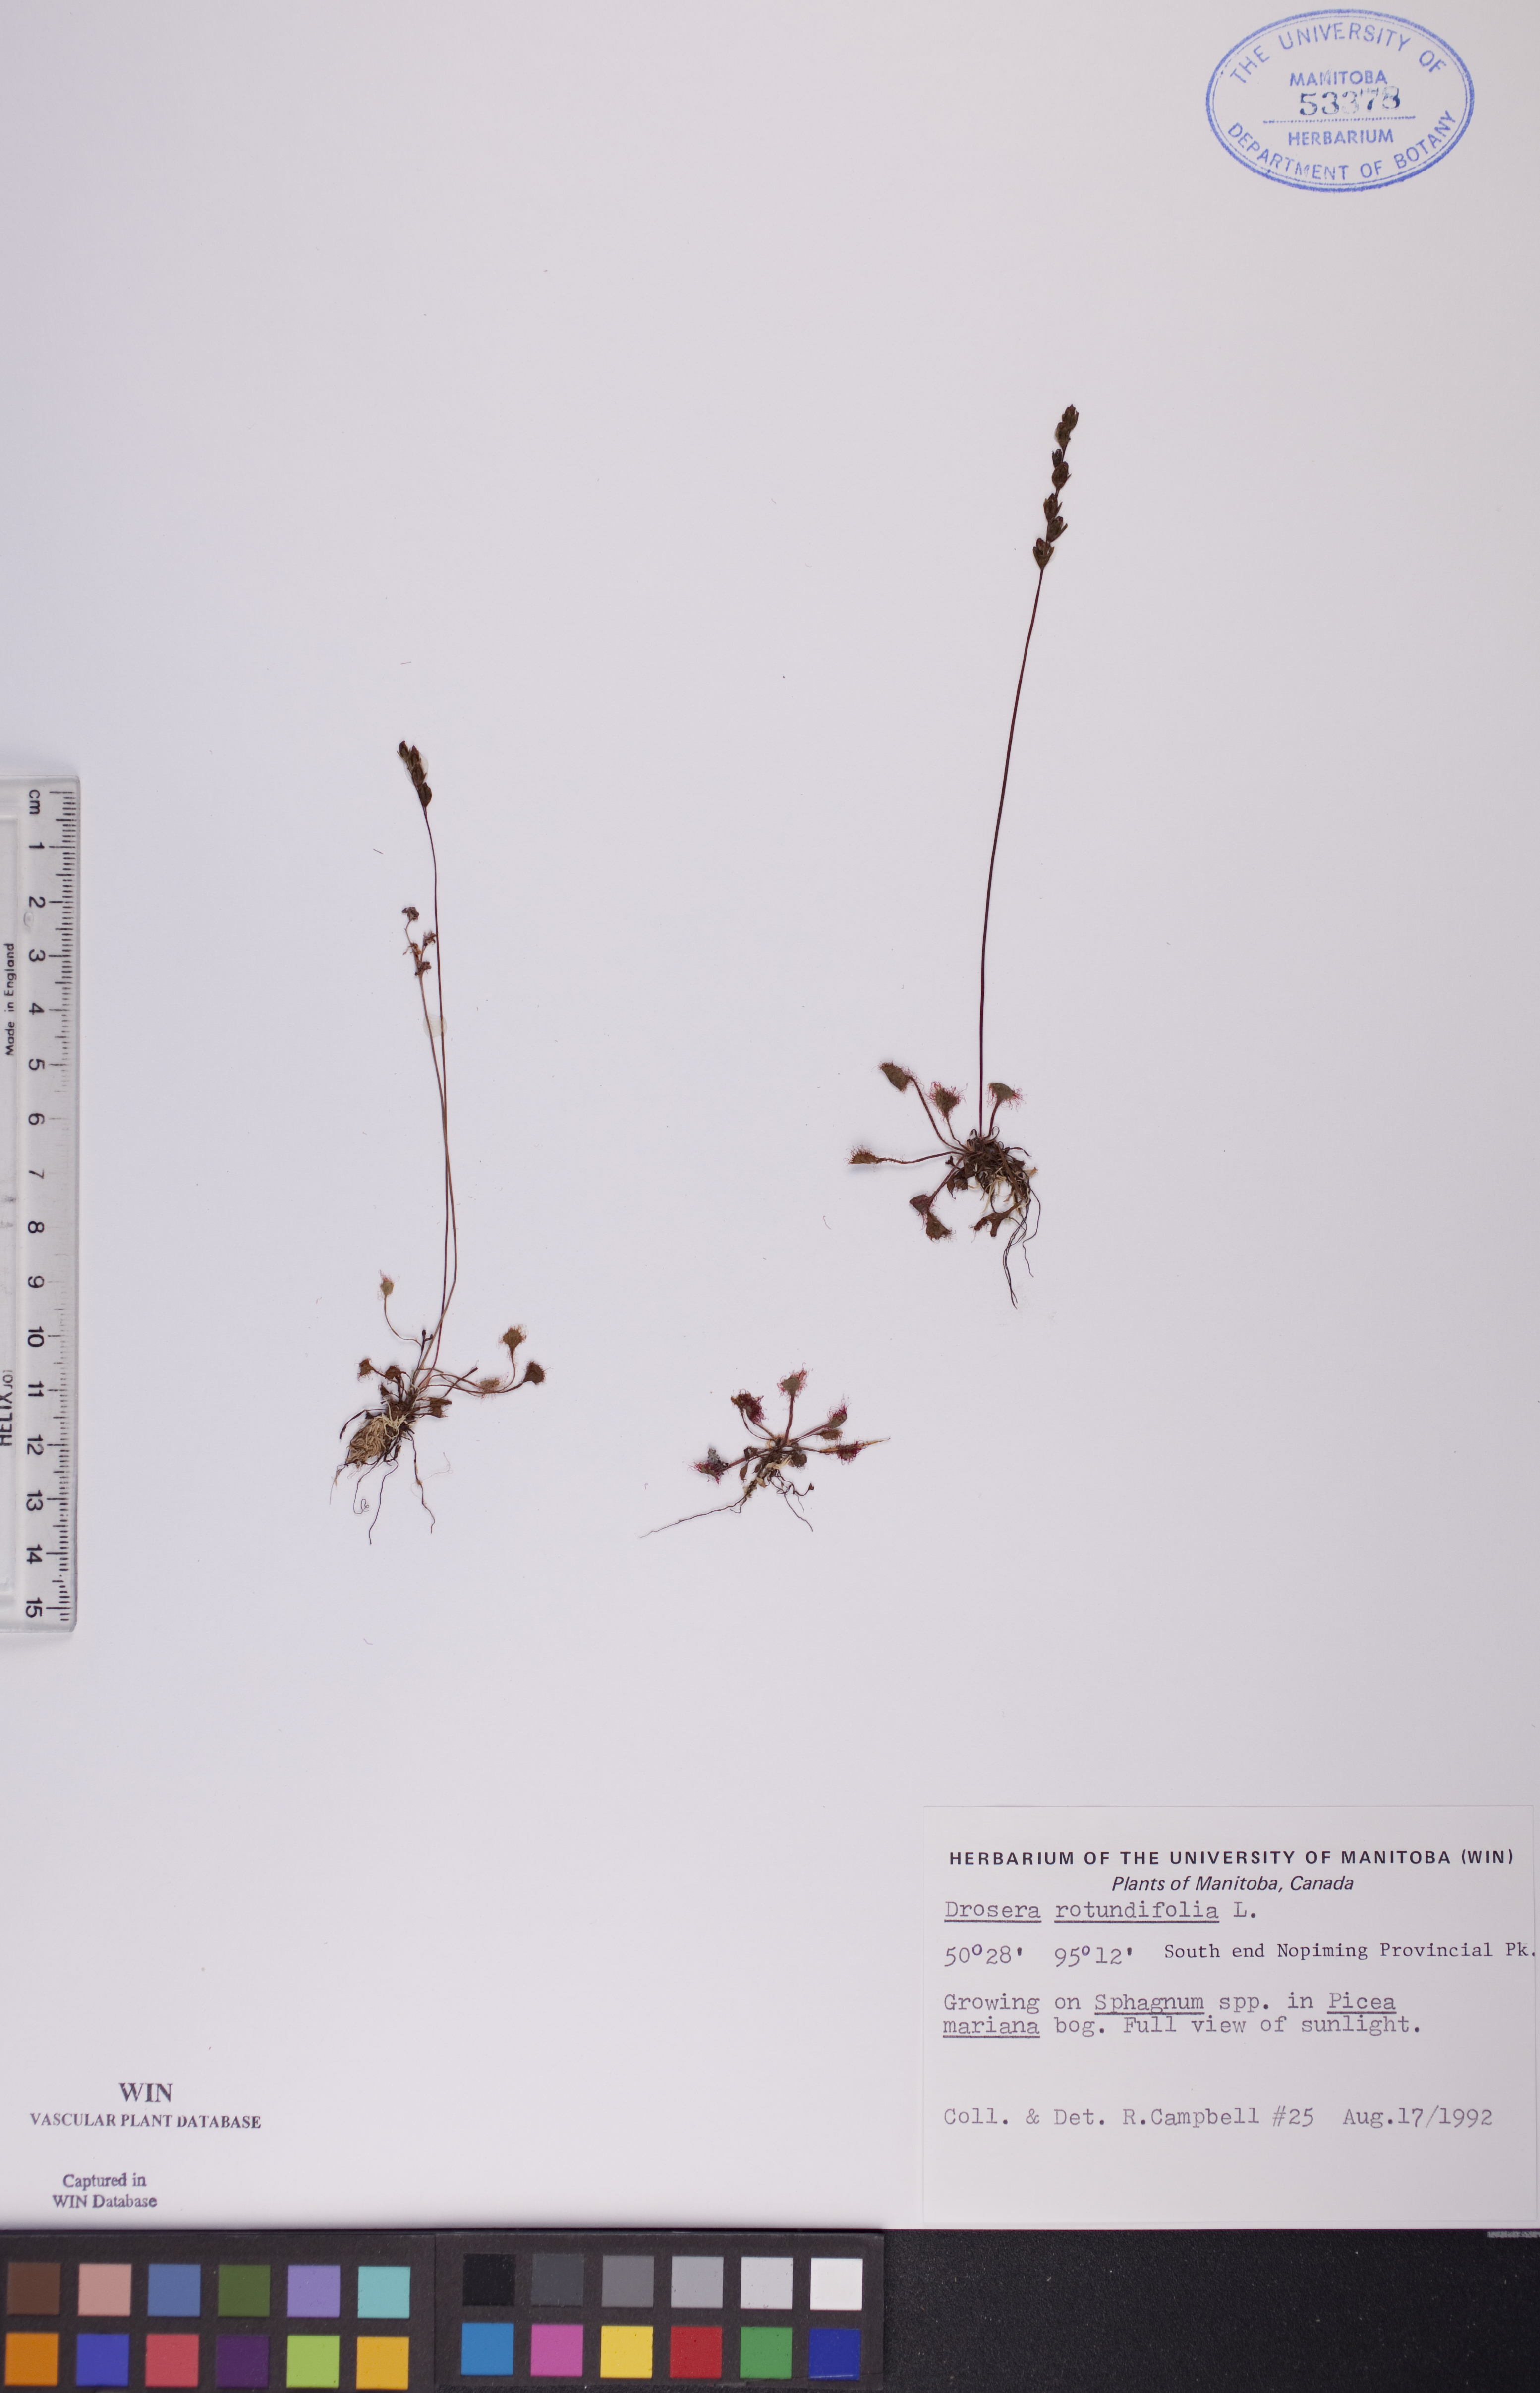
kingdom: Plantae
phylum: Tracheophyta
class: Magnoliopsida
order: Caryophyllales
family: Droseraceae
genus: Drosera
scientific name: Drosera rotundifolia
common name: Round-leaved sundew
